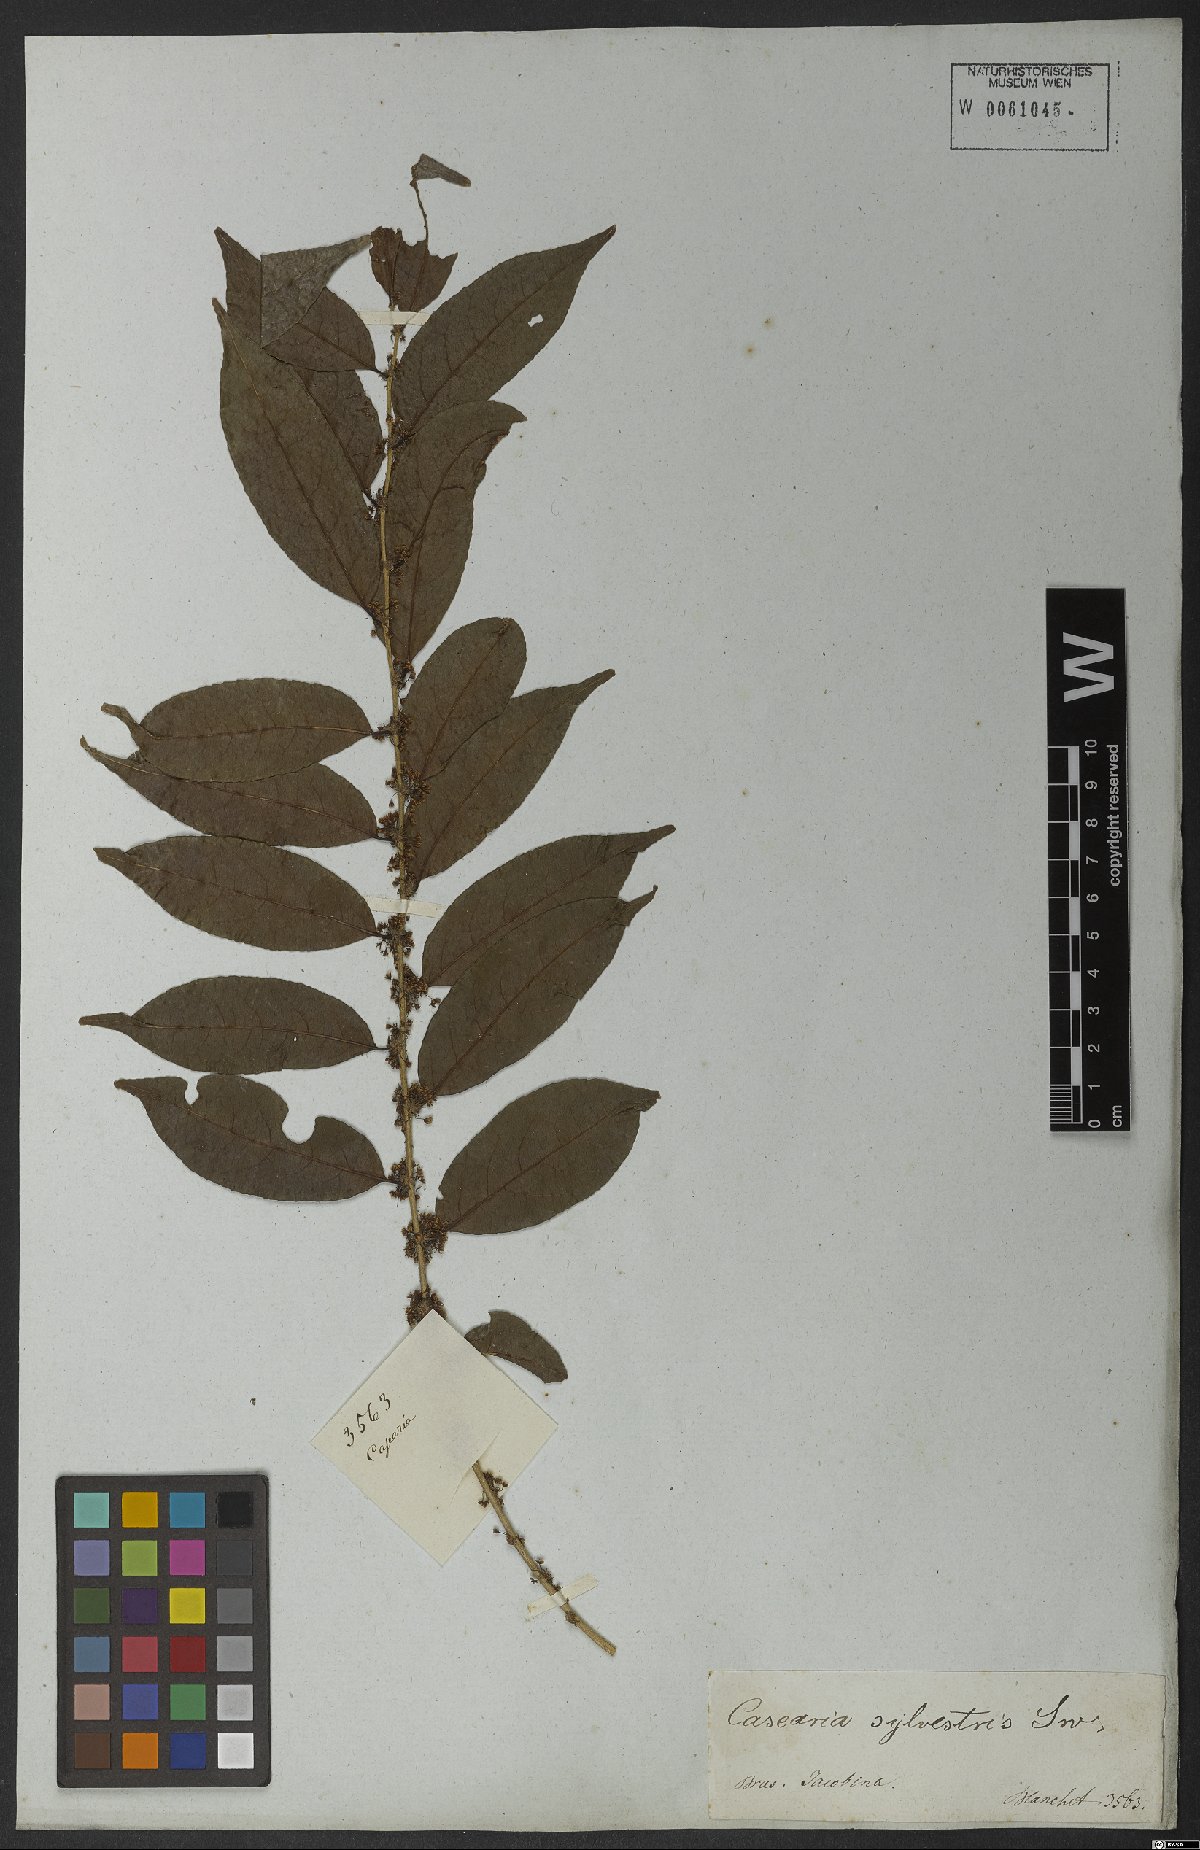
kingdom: Plantae
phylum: Tracheophyta
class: Magnoliopsida
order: Malpighiales
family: Salicaceae
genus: Casearia
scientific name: Casearia sylvestris
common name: Wild sage
